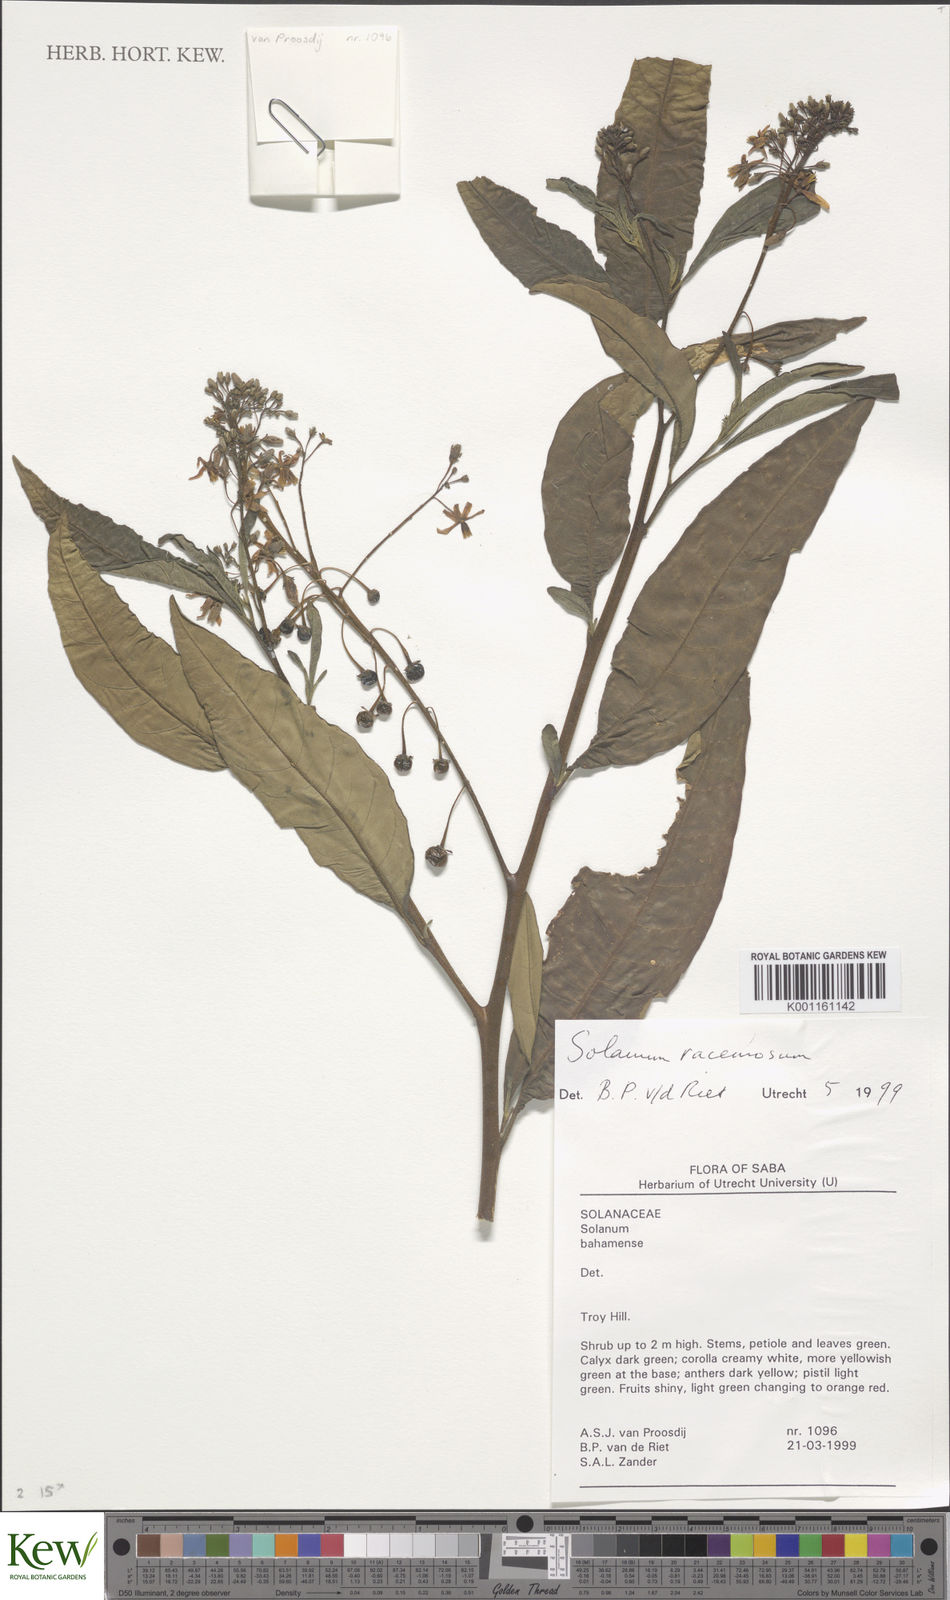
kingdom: Plantae
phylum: Tracheophyta
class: Magnoliopsida
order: Solanales
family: Solanaceae
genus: Solanum
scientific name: Solanum bahamense
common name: Canker-berry
